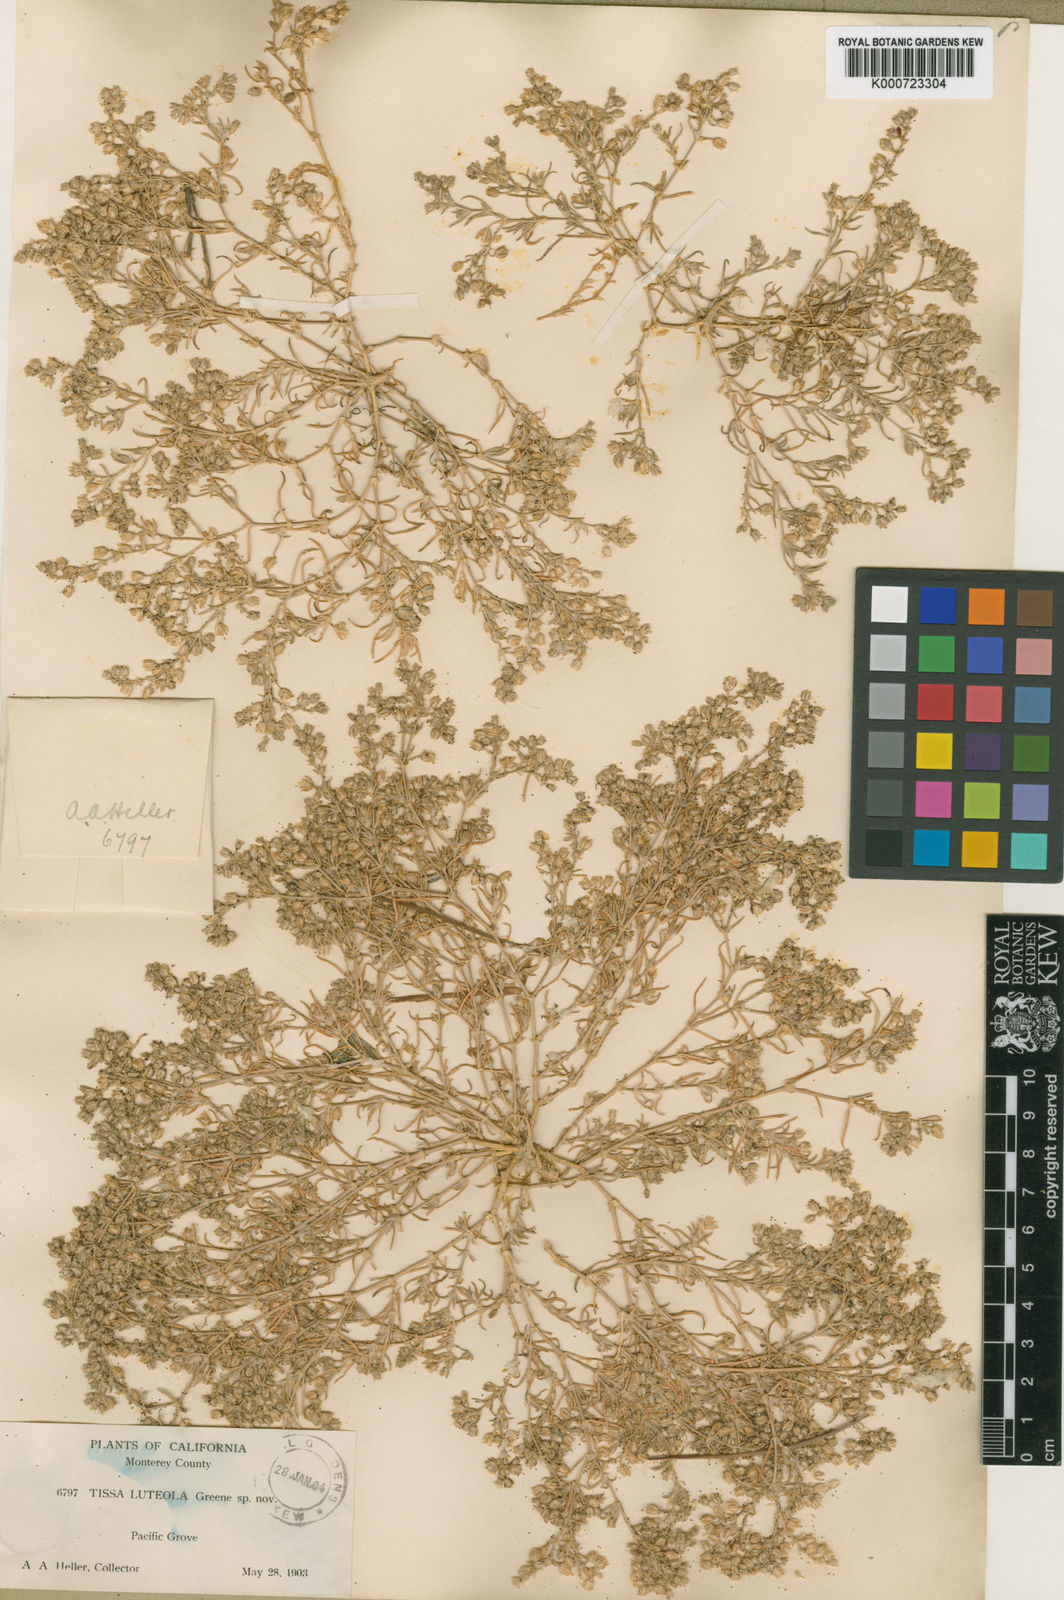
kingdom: Plantae
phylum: Tracheophyta
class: Magnoliopsida
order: Caryophyllales
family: Caryophyllaceae
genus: Spergularia
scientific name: Spergularia
